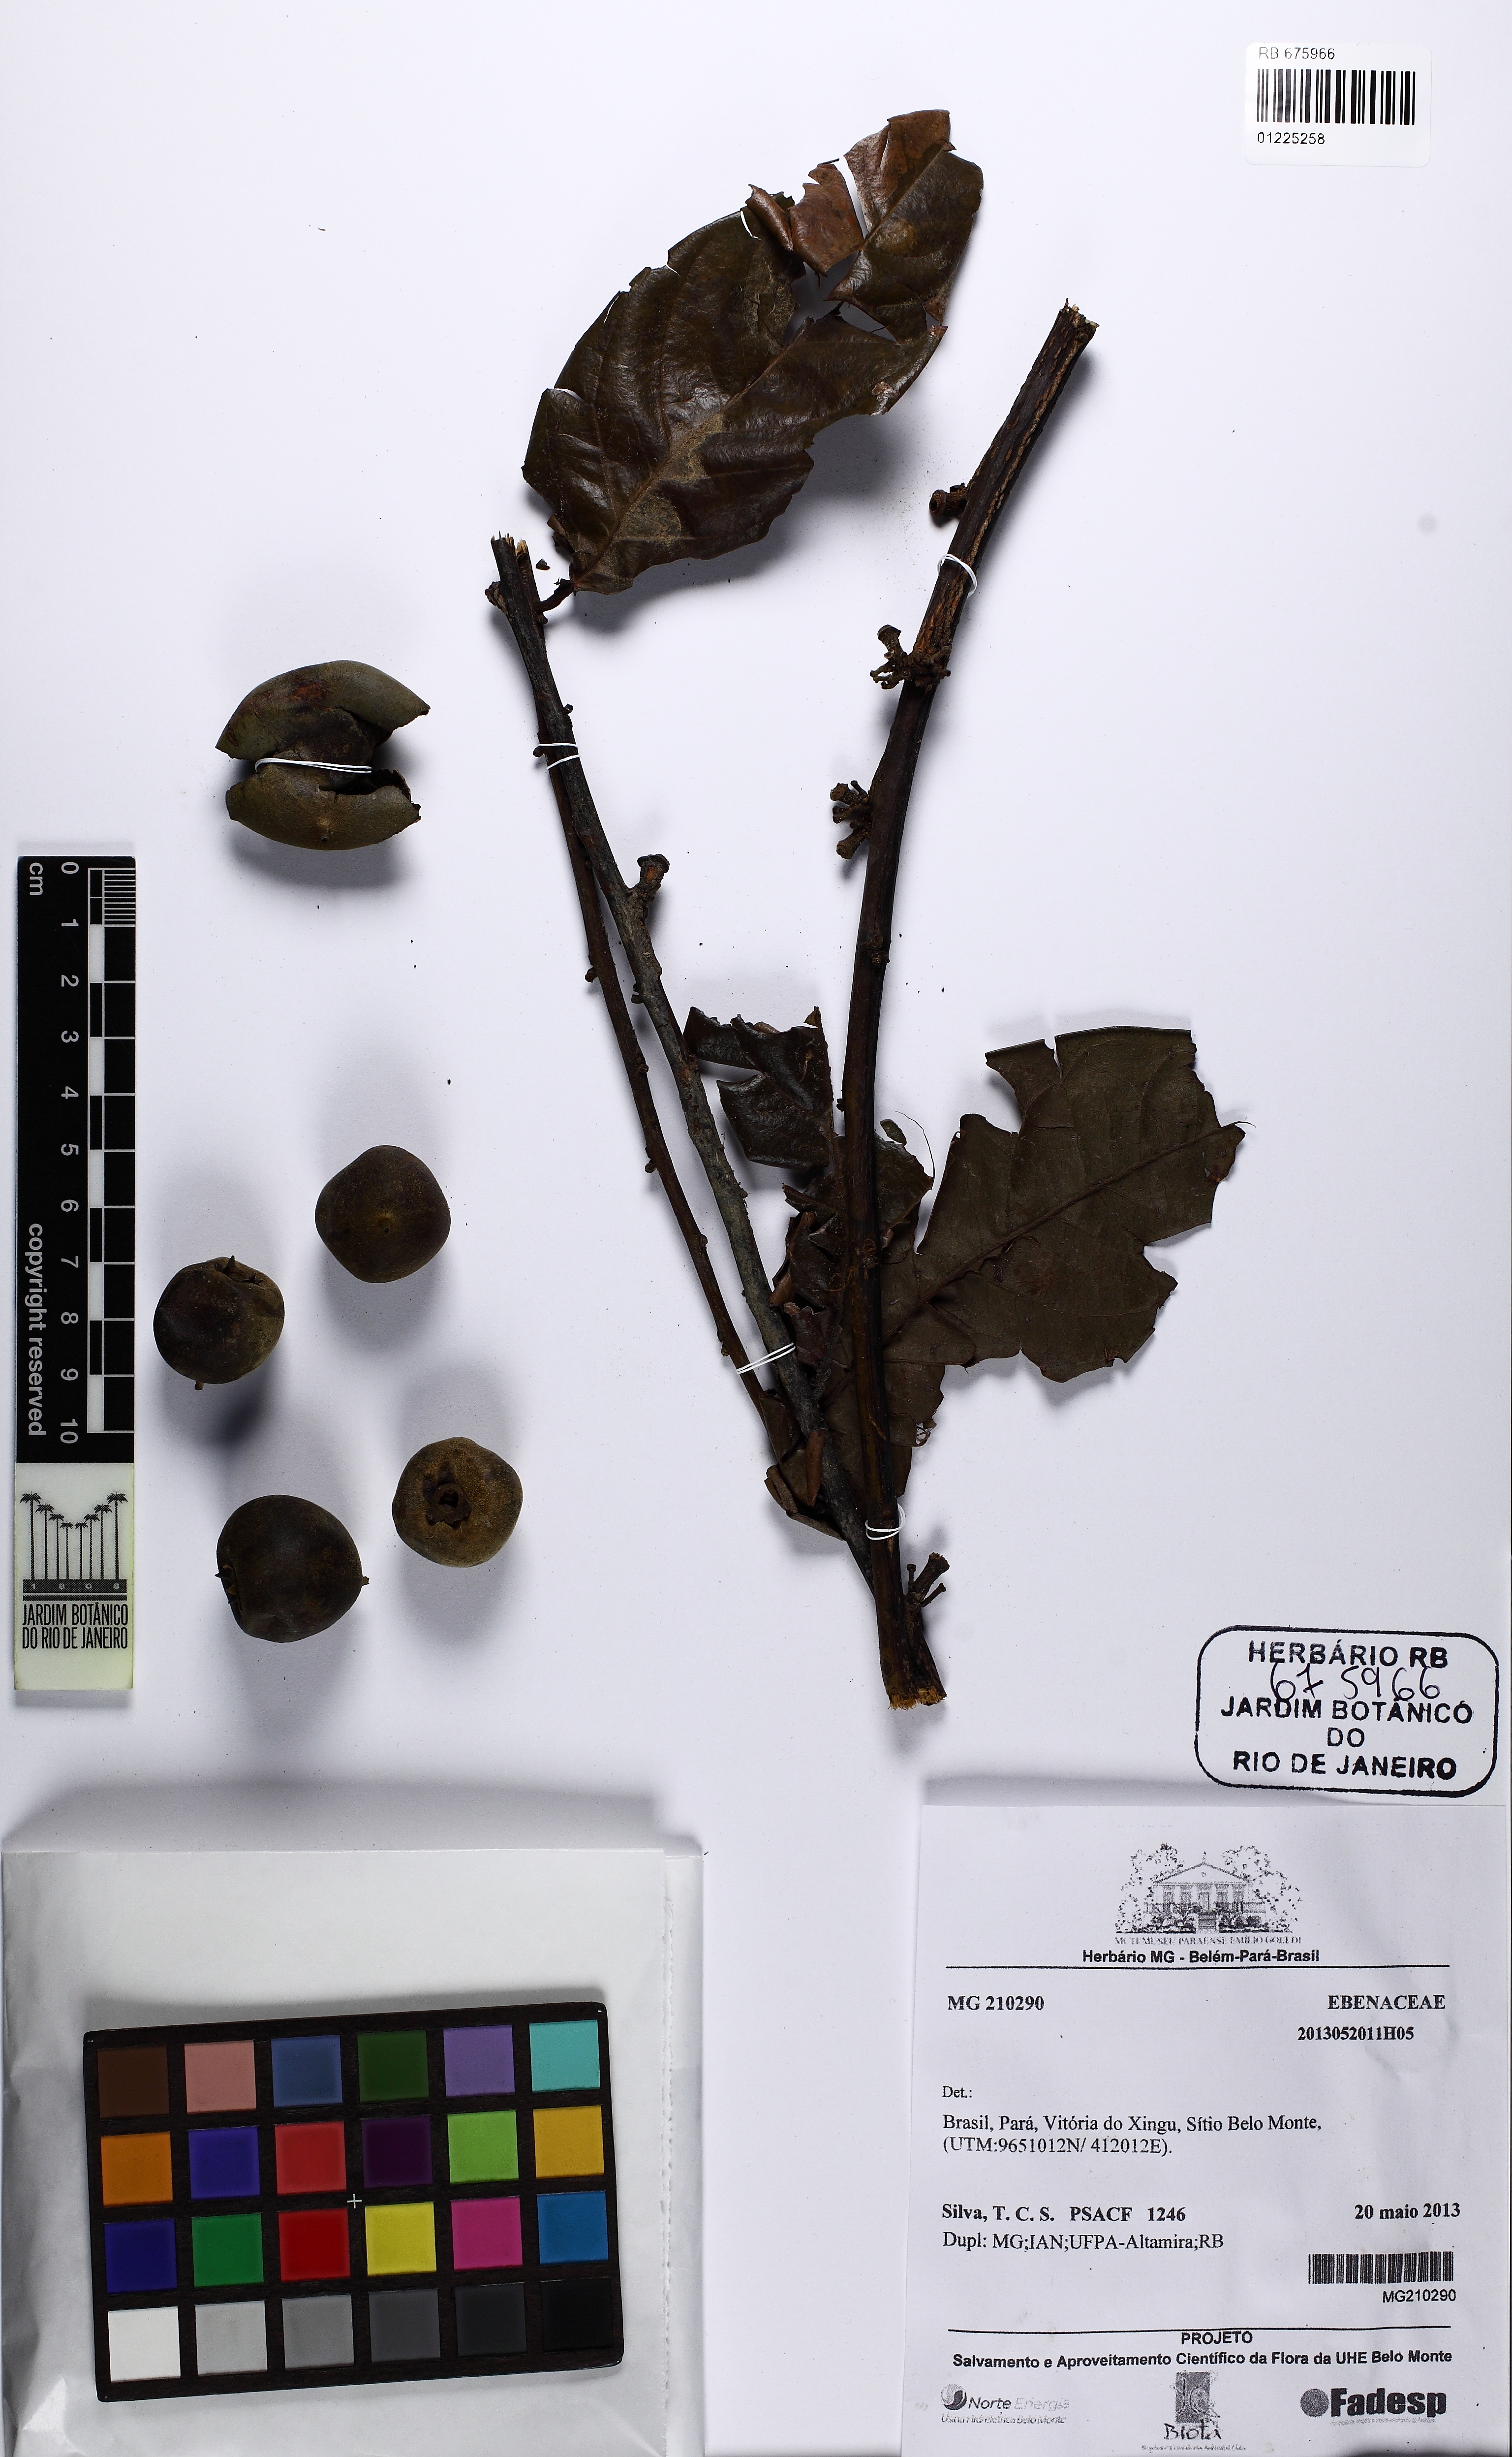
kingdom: Plantae
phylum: Tracheophyta
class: Magnoliopsida
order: Fabales
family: Fabaceae
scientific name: Fabaceae
